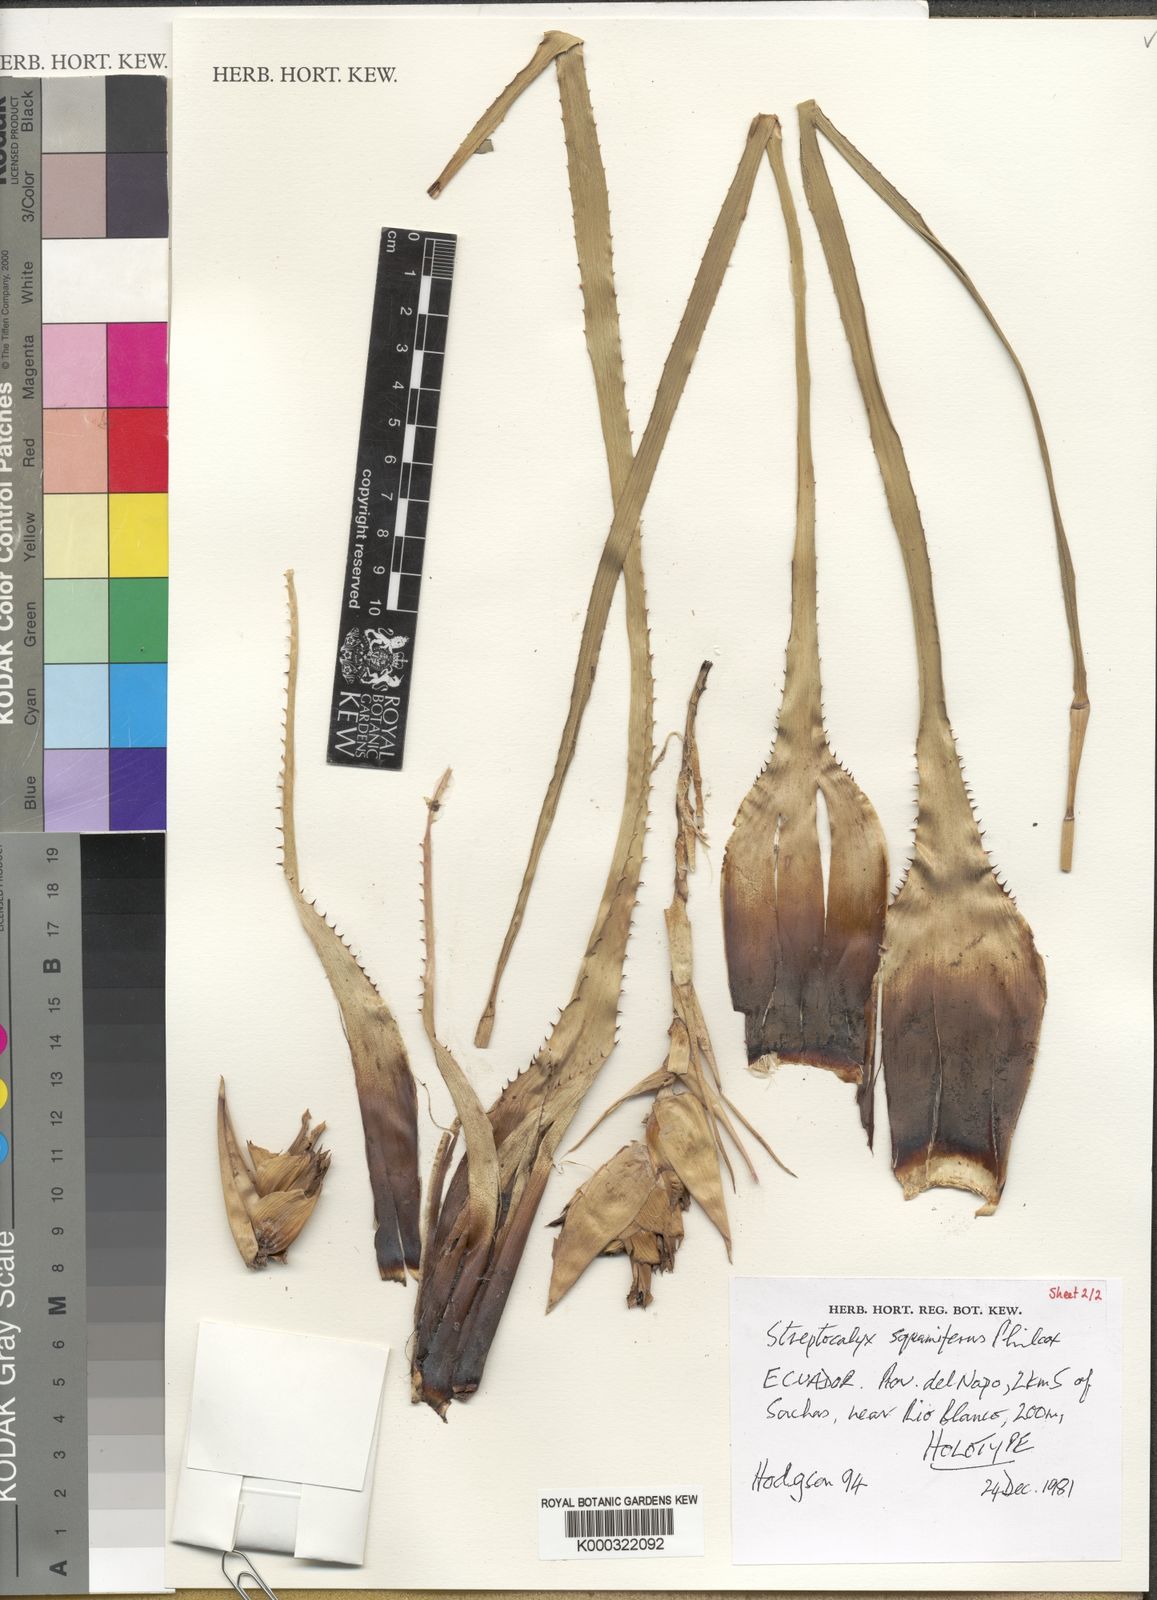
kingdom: Plantae
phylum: Tracheophyta
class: Liliopsida
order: Poales
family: Bromeliaceae
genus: Aechmea
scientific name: Aechmea
